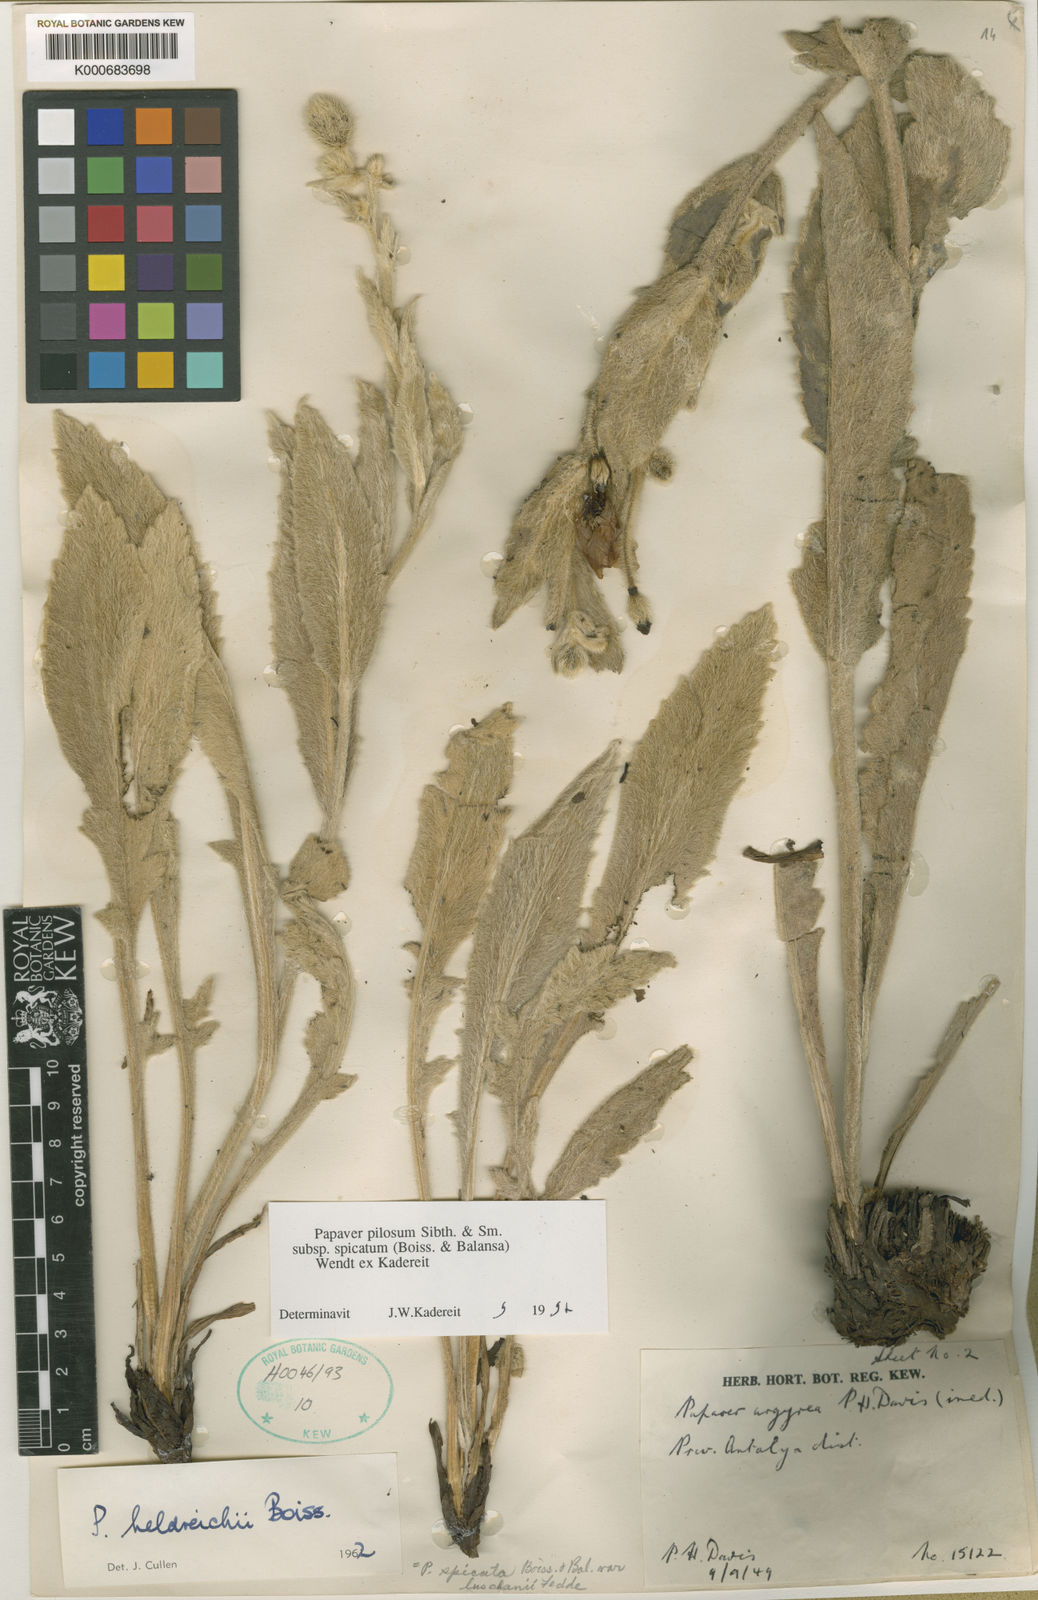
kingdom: Plantae
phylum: Tracheophyta
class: Magnoliopsida
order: Ranunculales
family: Papaveraceae
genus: Papaver
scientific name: Papaver pilosum
